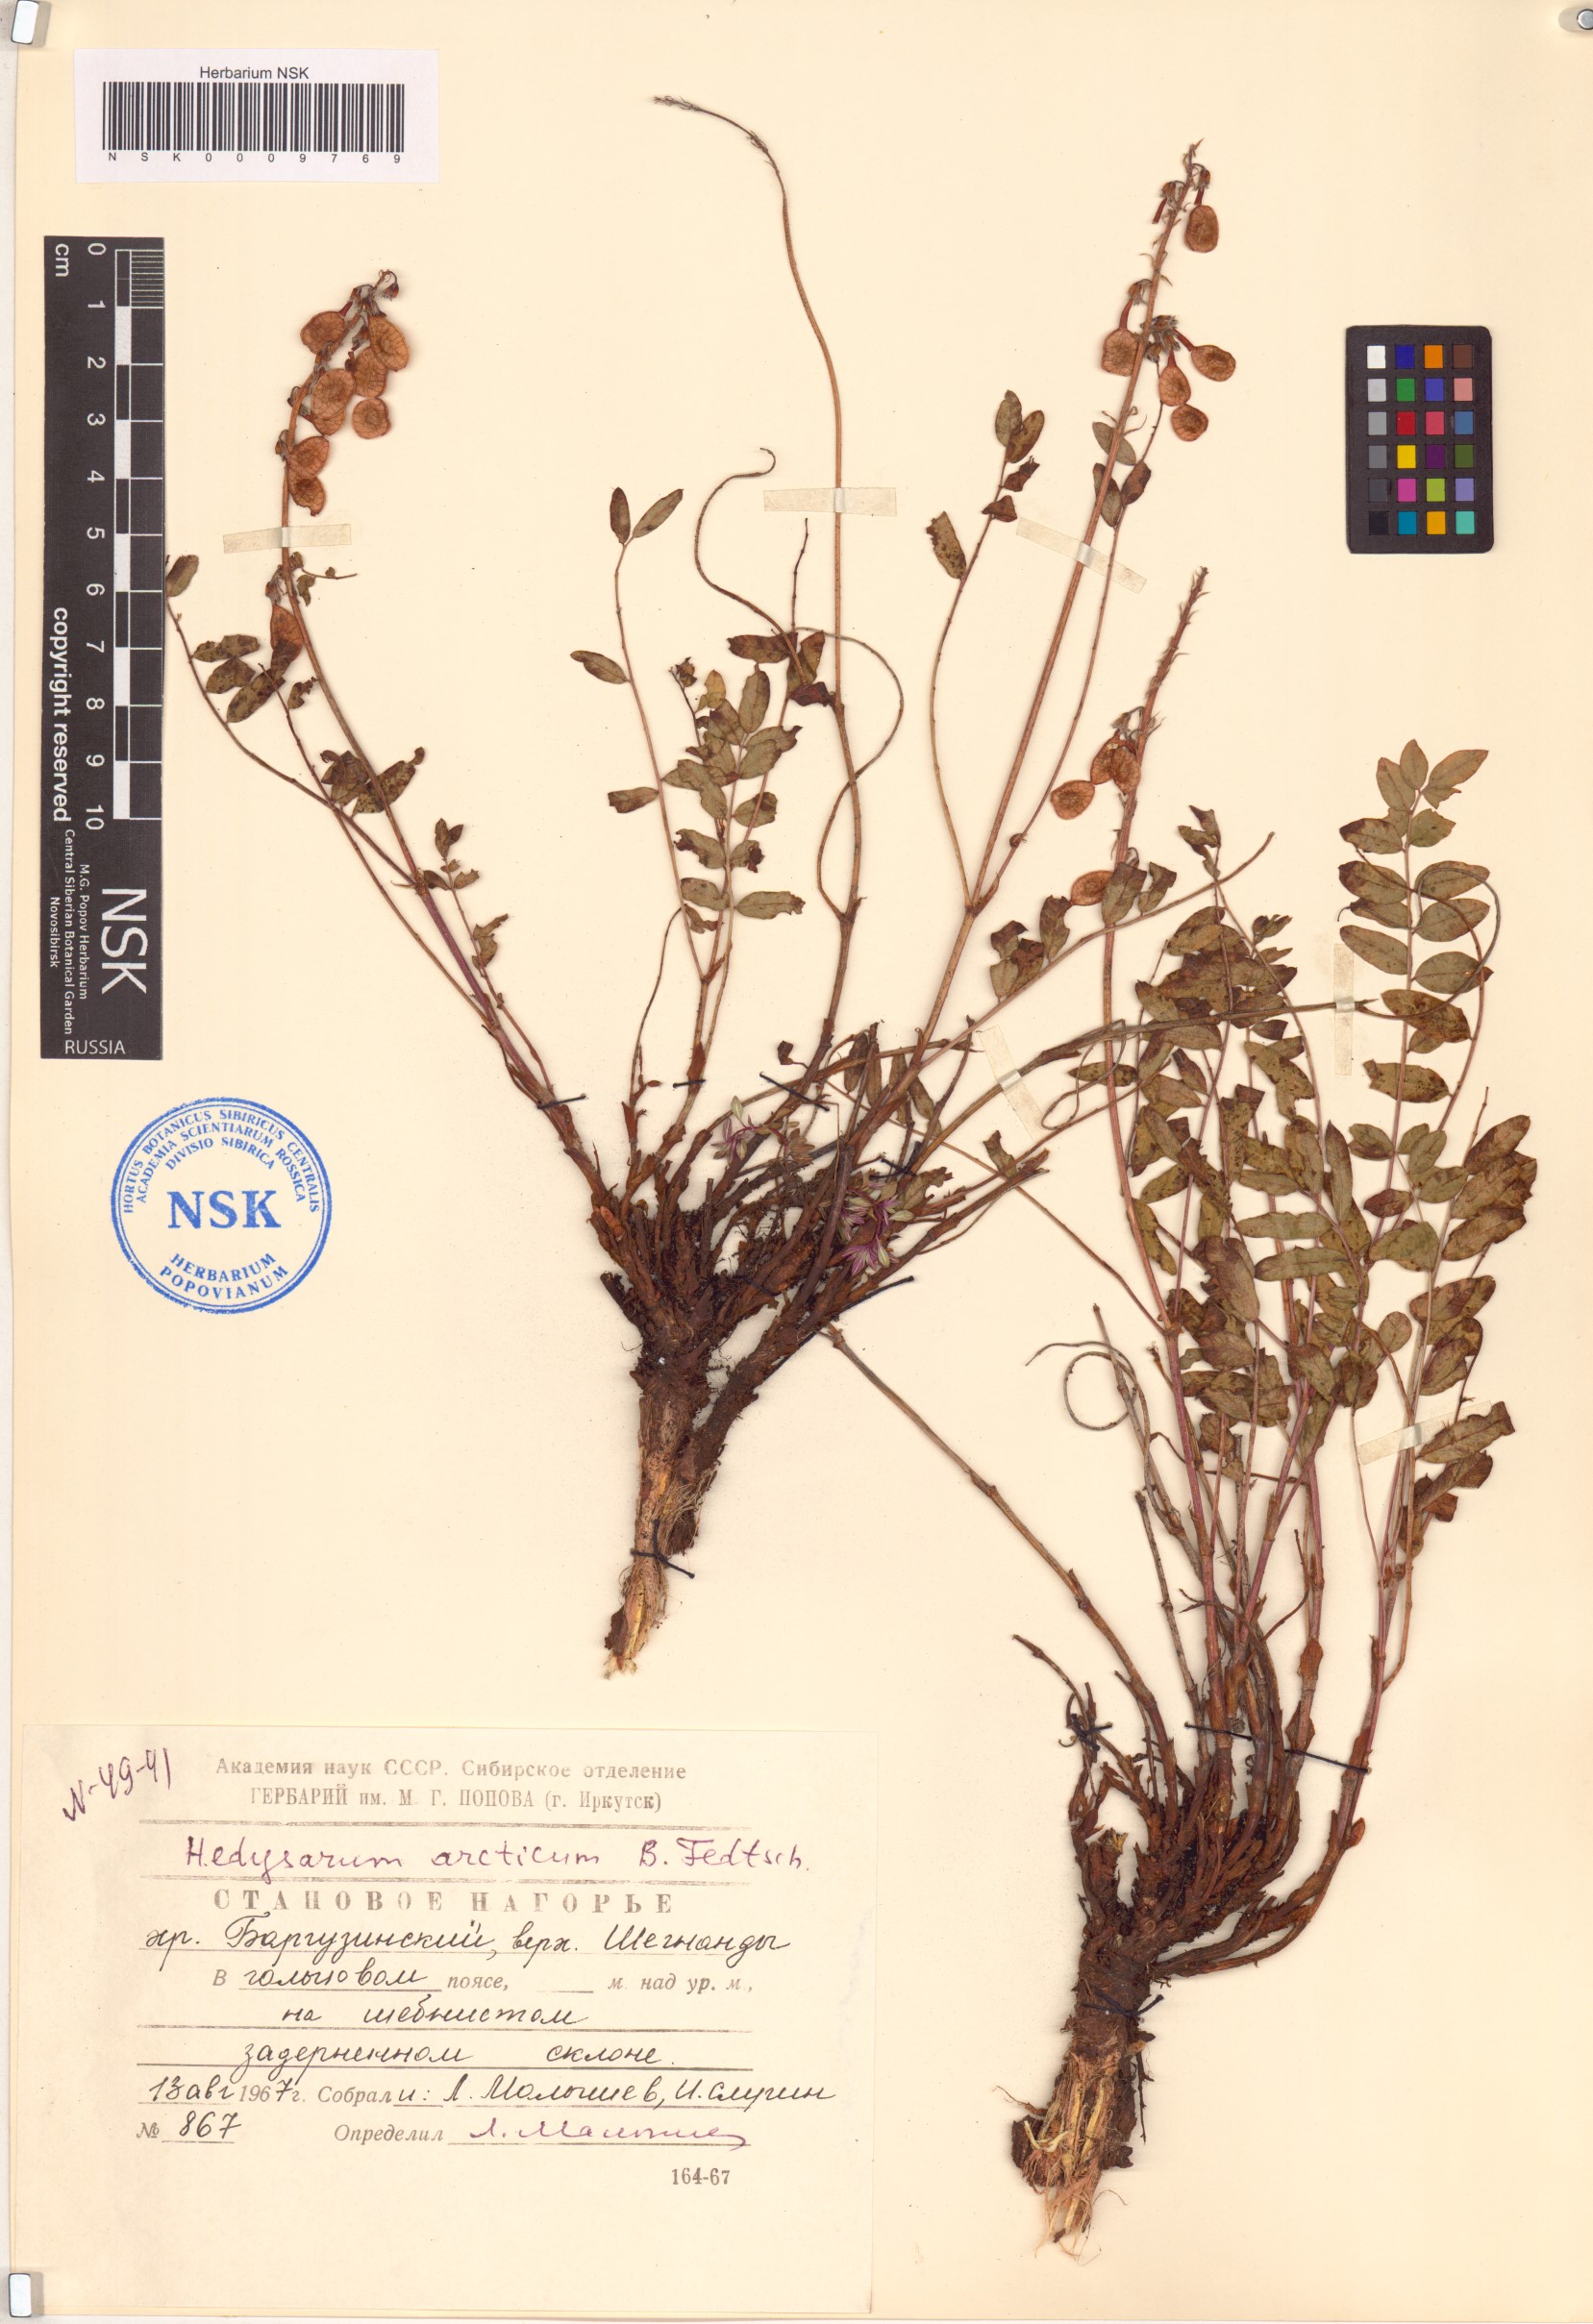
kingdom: Plantae
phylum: Tracheophyta
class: Magnoliopsida
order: Fabales
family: Fabaceae
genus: Hedysarum
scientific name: Hedysarum hedysaroides
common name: Alpine french-honeysuckle
